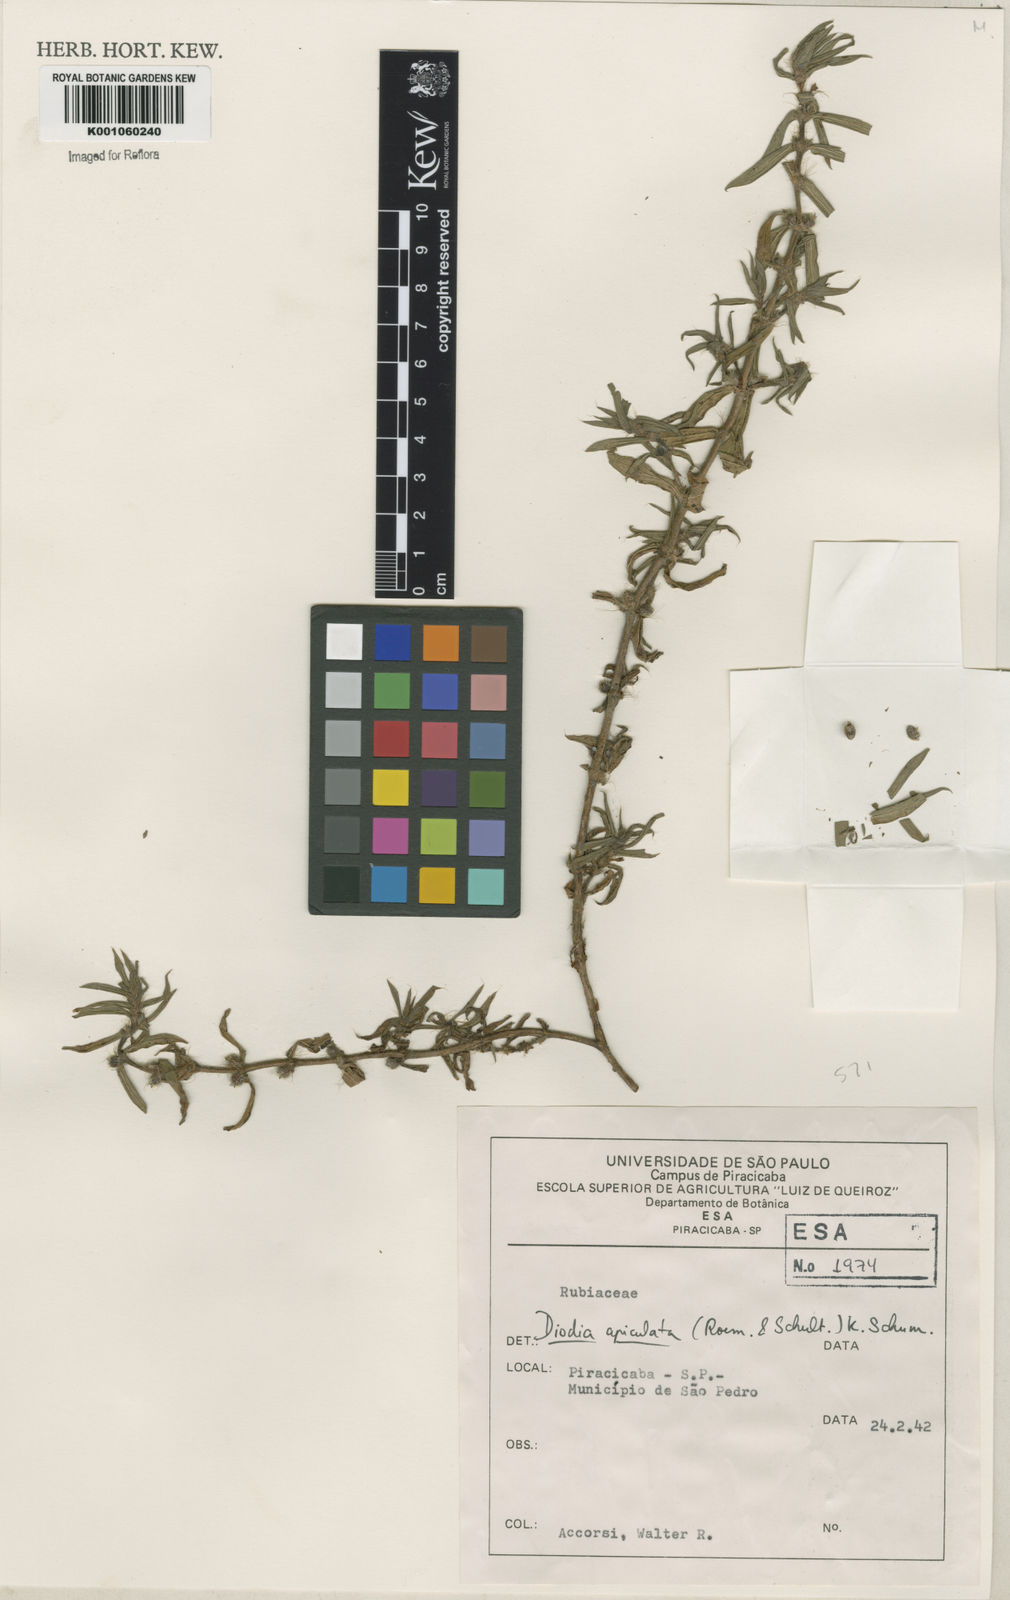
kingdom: Plantae
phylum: Tracheophyta
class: Magnoliopsida
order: Gentianales
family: Rubiaceae
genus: Hexasepalum
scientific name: Hexasepalum apiculatum
